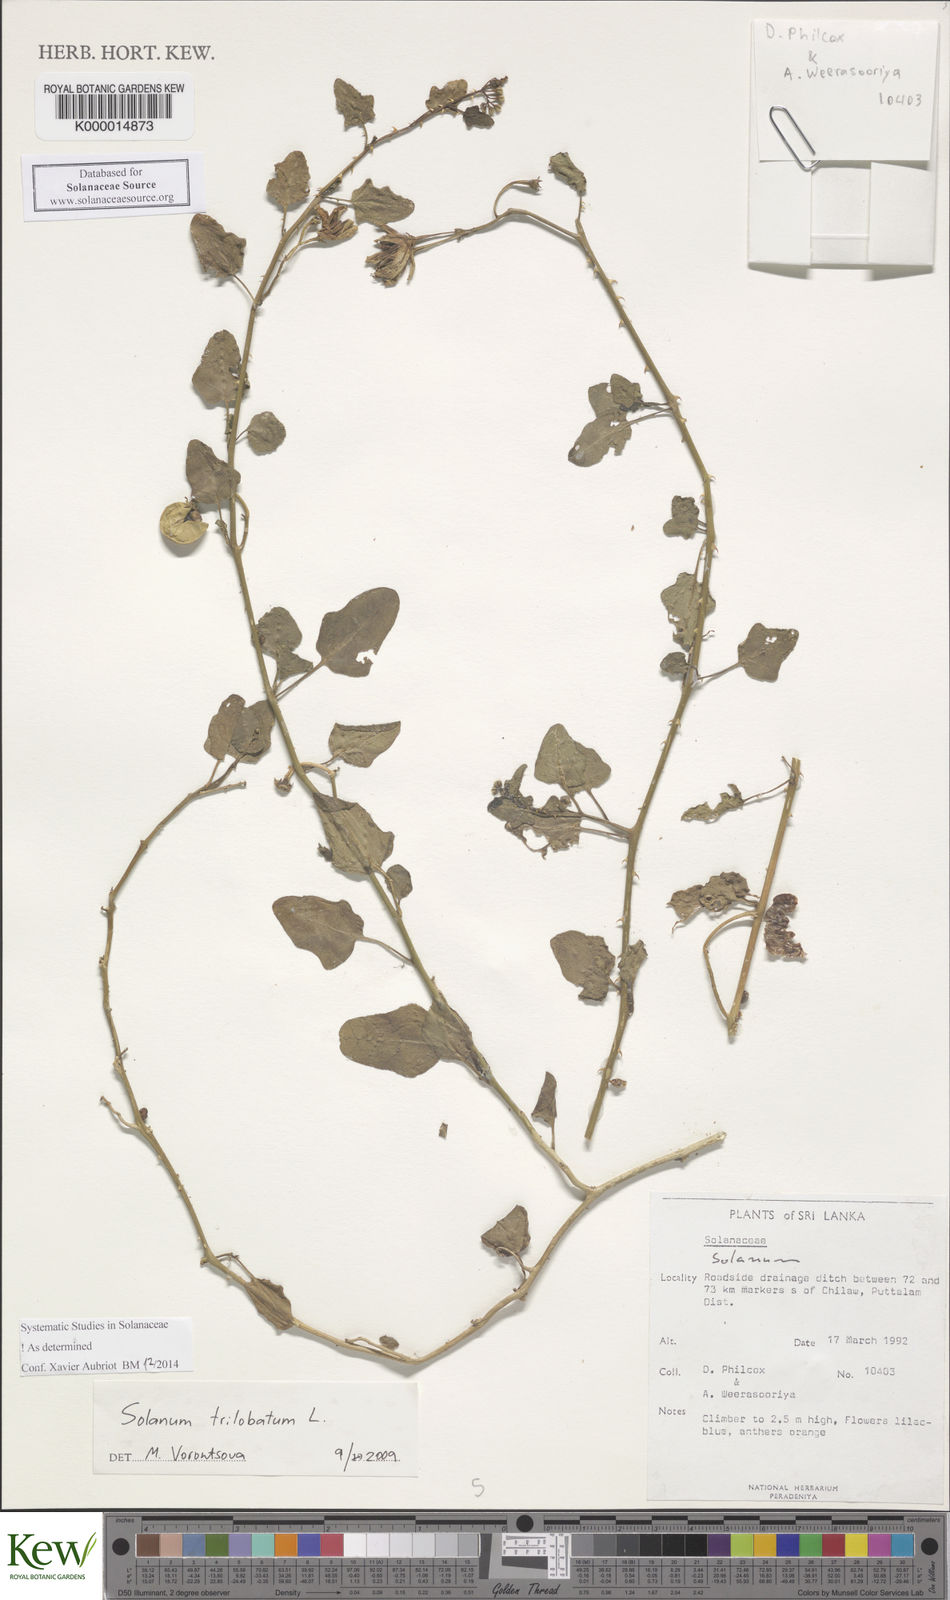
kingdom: Plantae
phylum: Tracheophyta
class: Magnoliopsida
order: Solanales
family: Solanaceae
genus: Solanum
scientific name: Solanum trilobatum
